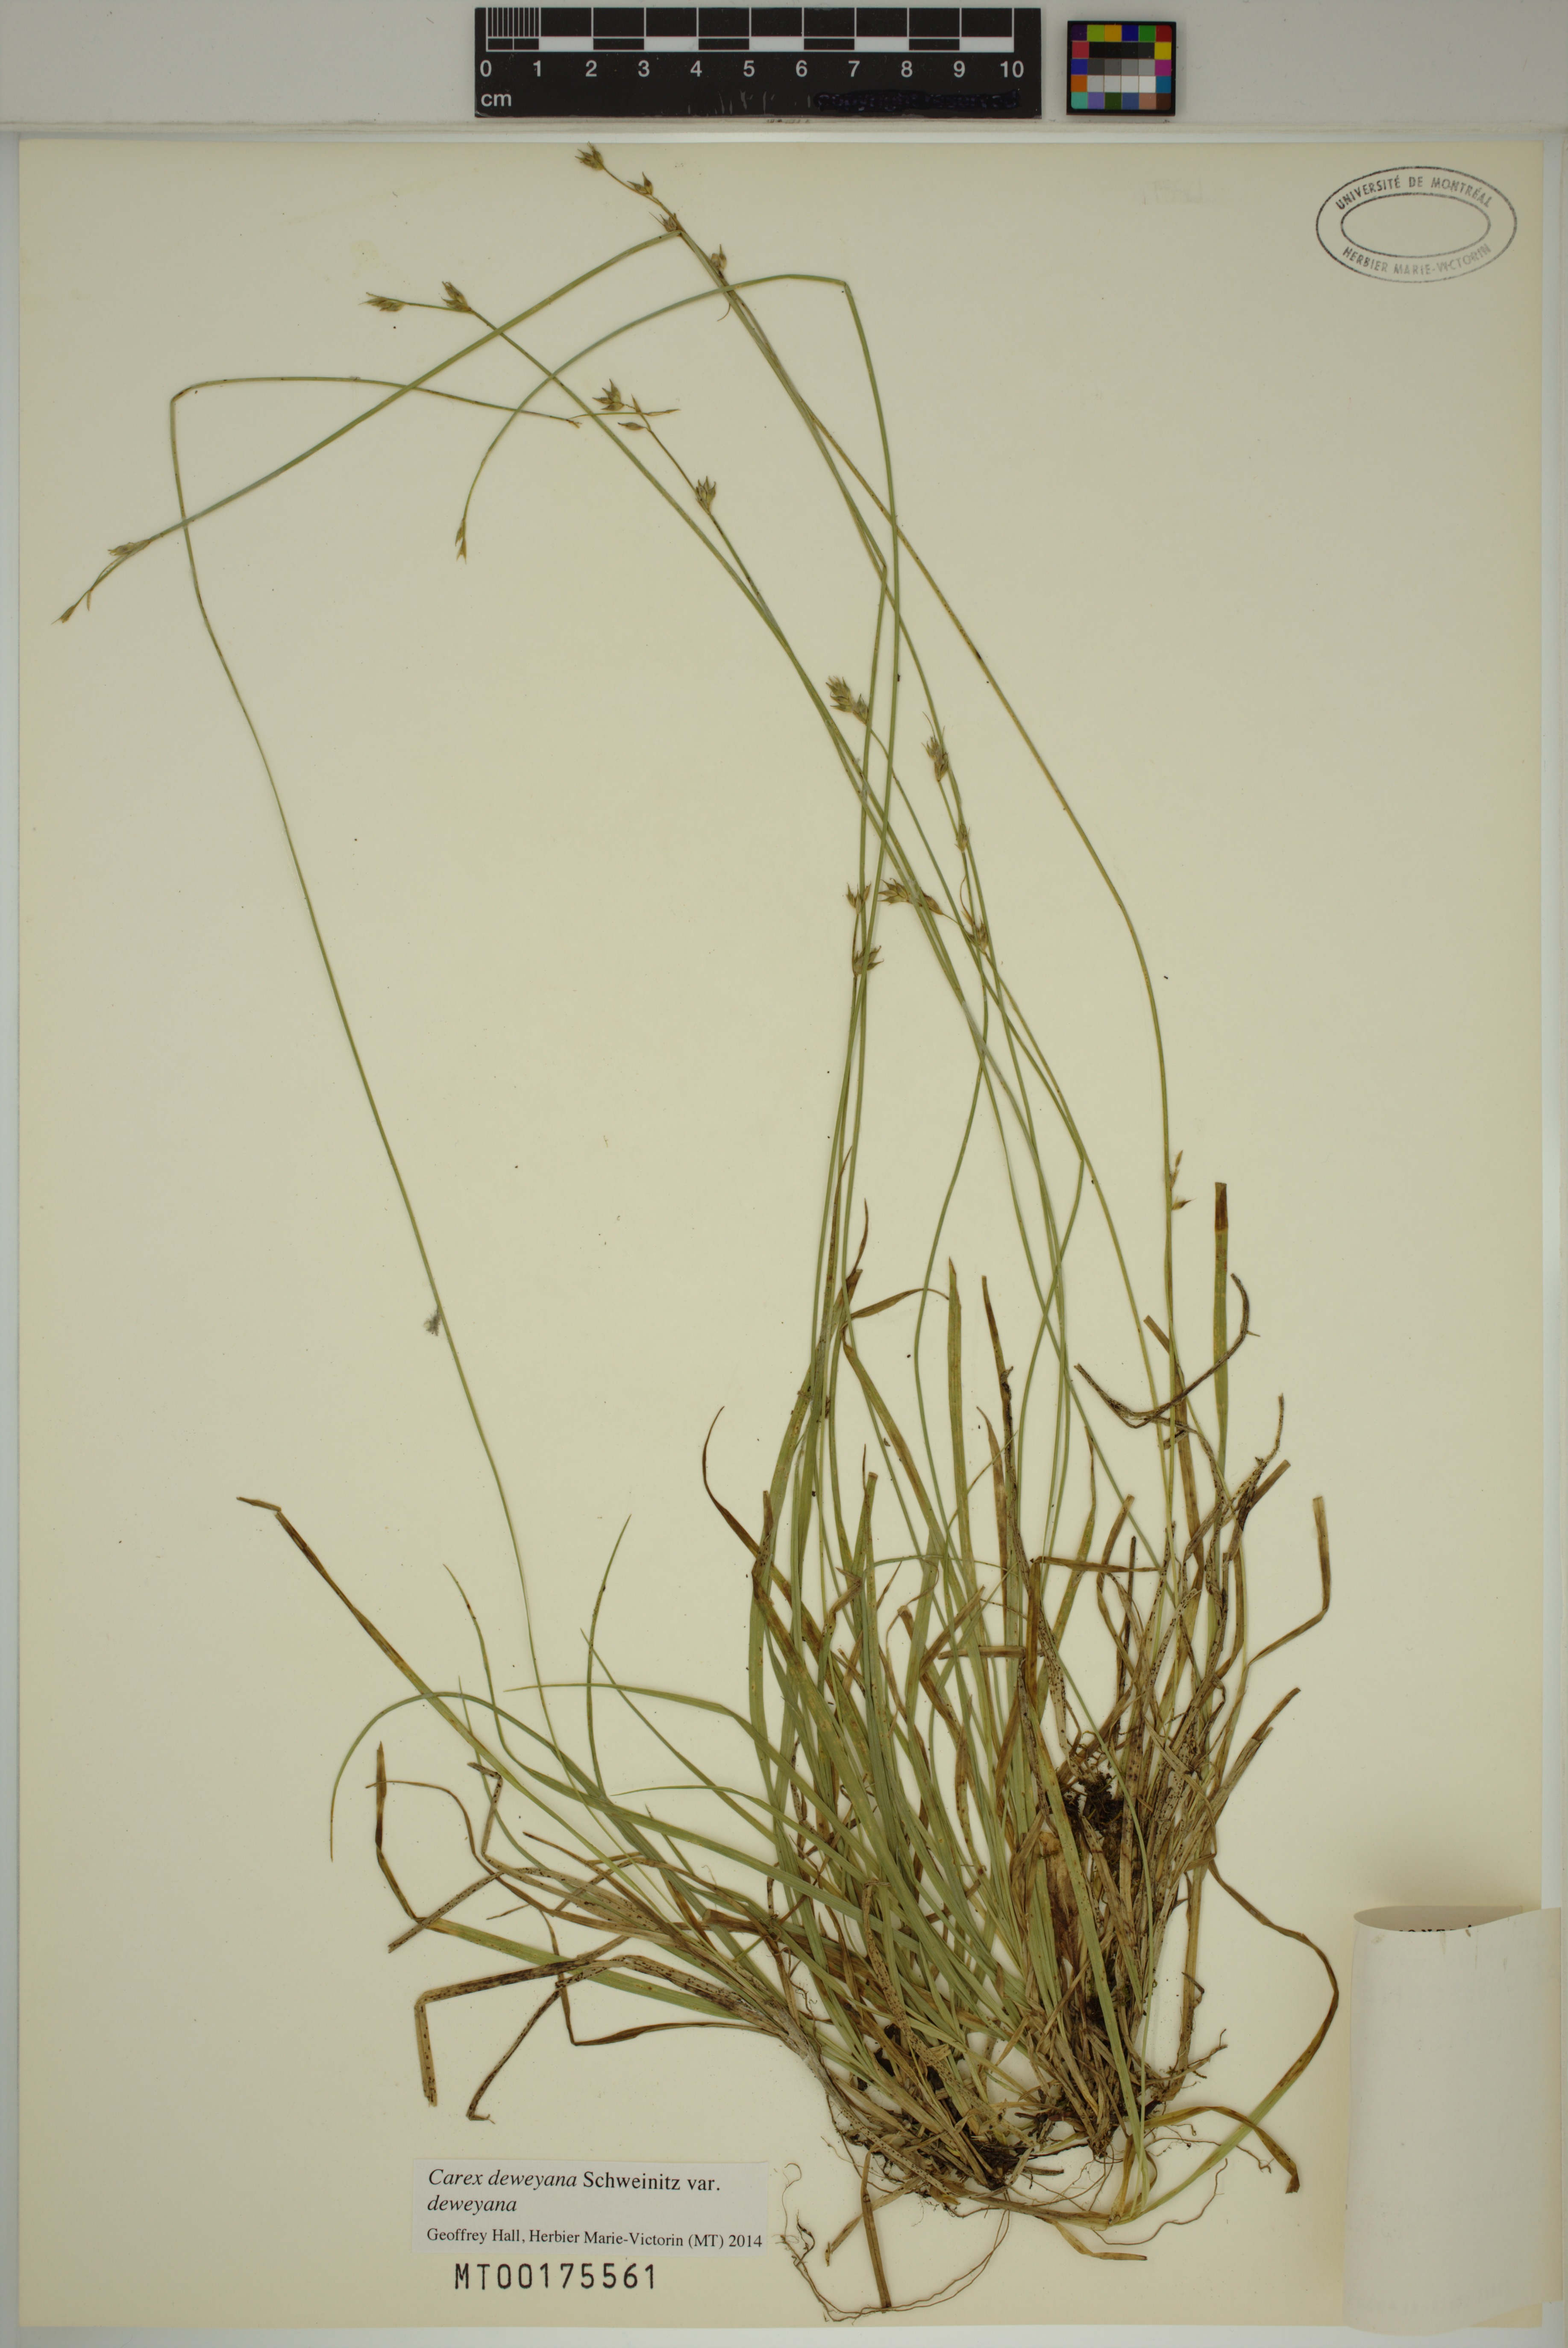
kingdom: Plantae
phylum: Tracheophyta
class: Liliopsida
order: Poales
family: Cyperaceae
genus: Carex
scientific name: Carex deweyana
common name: Dewey's sedge
